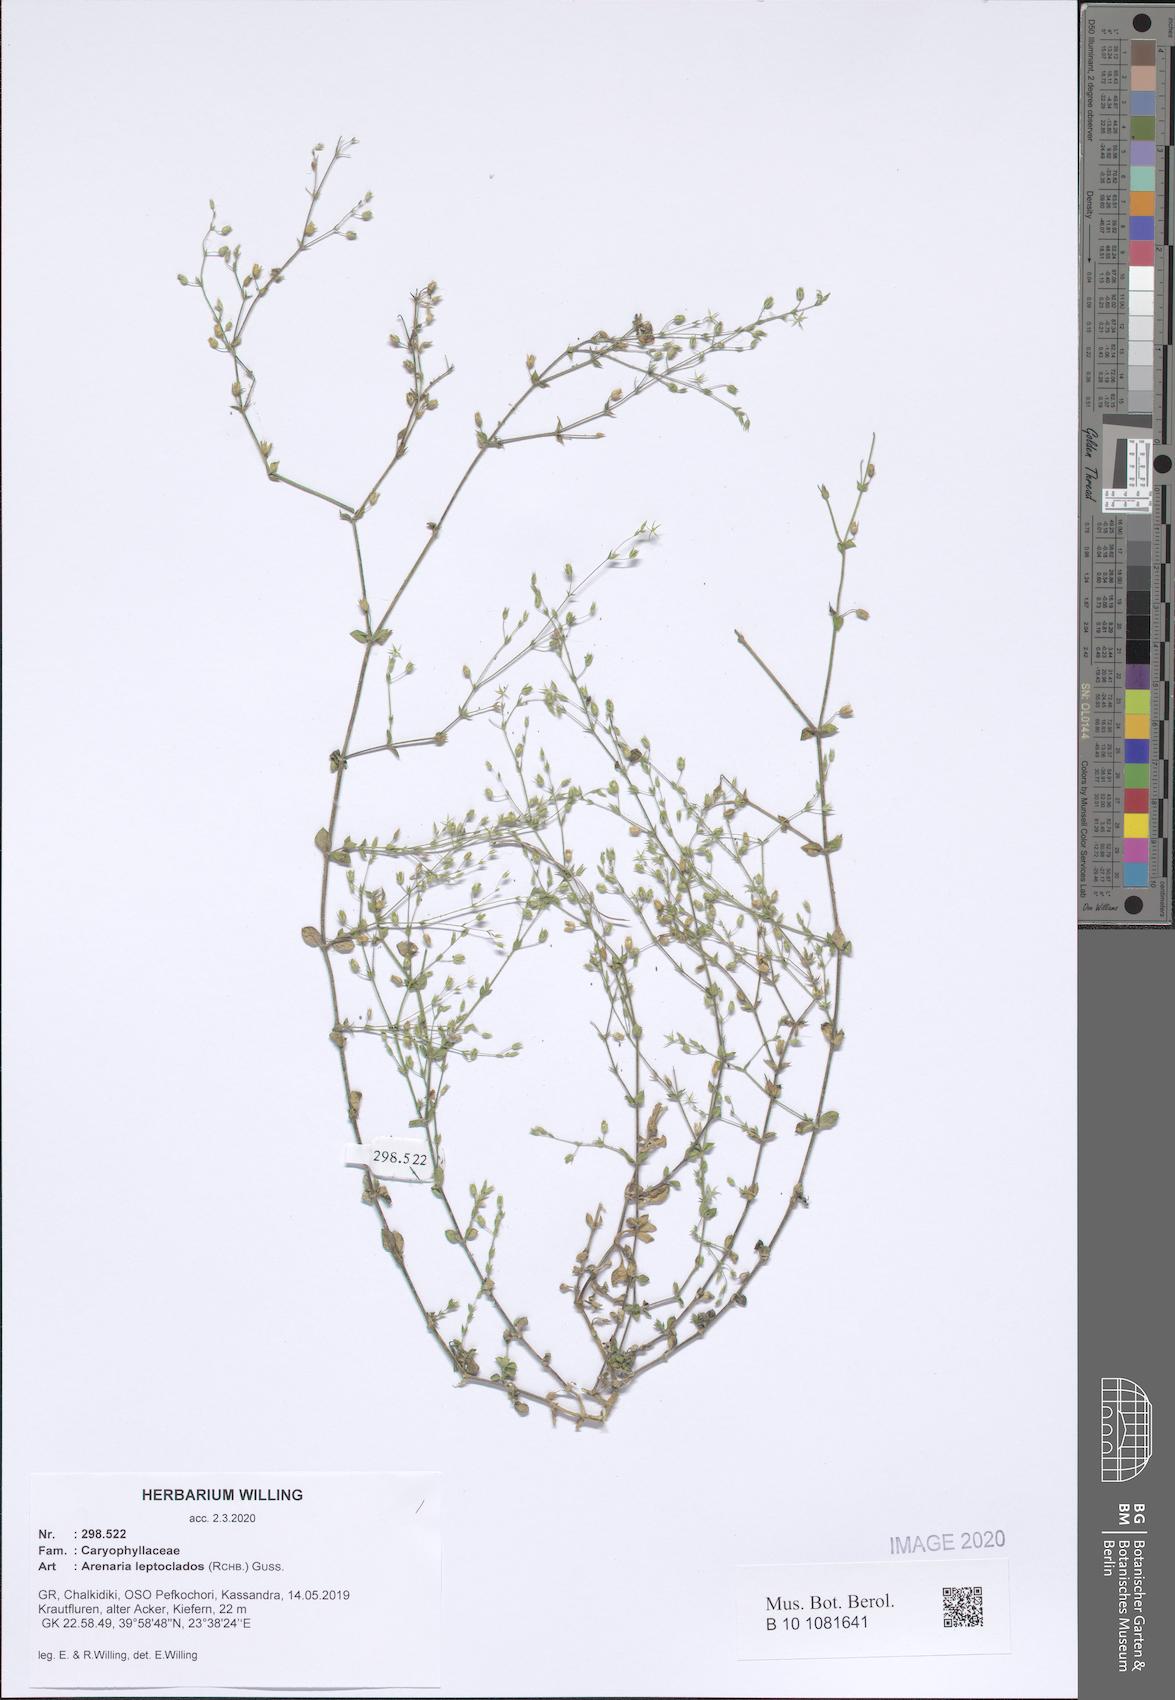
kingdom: Plantae
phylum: Tracheophyta
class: Magnoliopsida
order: Caryophyllales
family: Caryophyllaceae
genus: Arenaria
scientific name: Arenaria leptoclados
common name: Thyme-leaved sandwort
